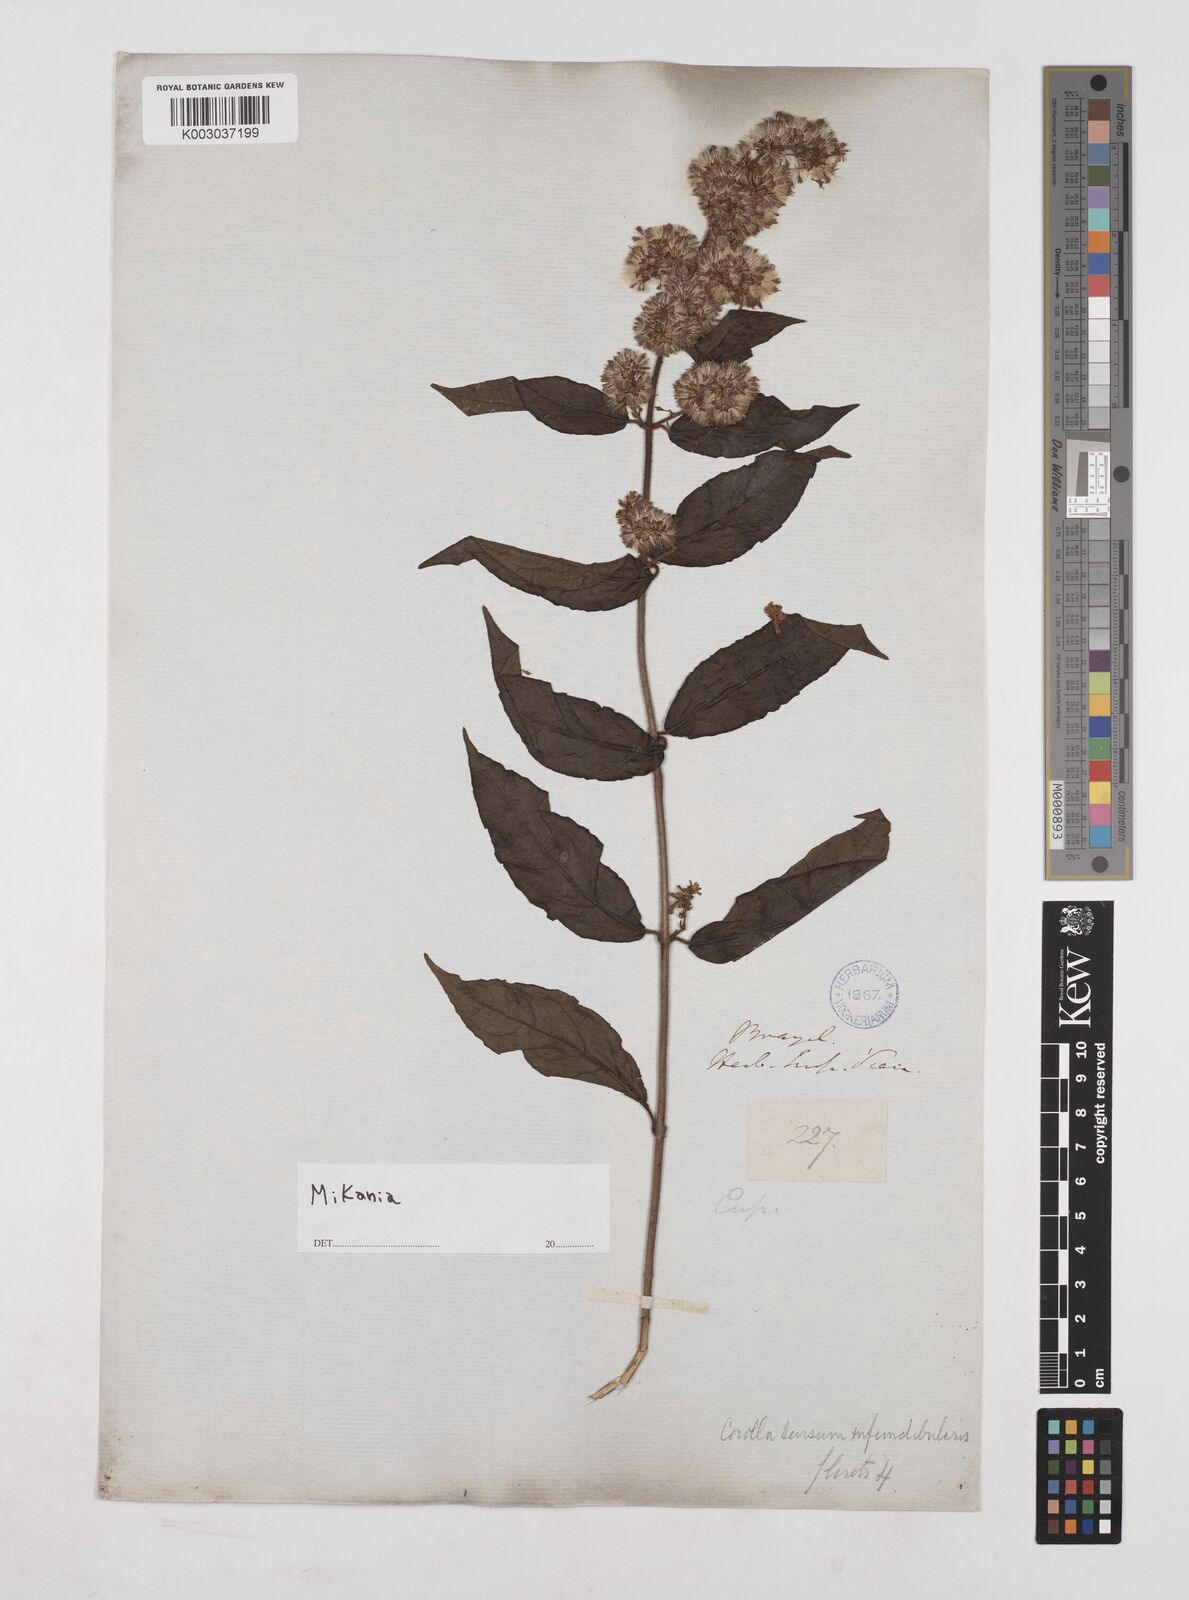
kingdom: Plantae
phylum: Tracheophyta
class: Magnoliopsida
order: Asterales
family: Asteraceae
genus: Mikania
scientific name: Mikania
